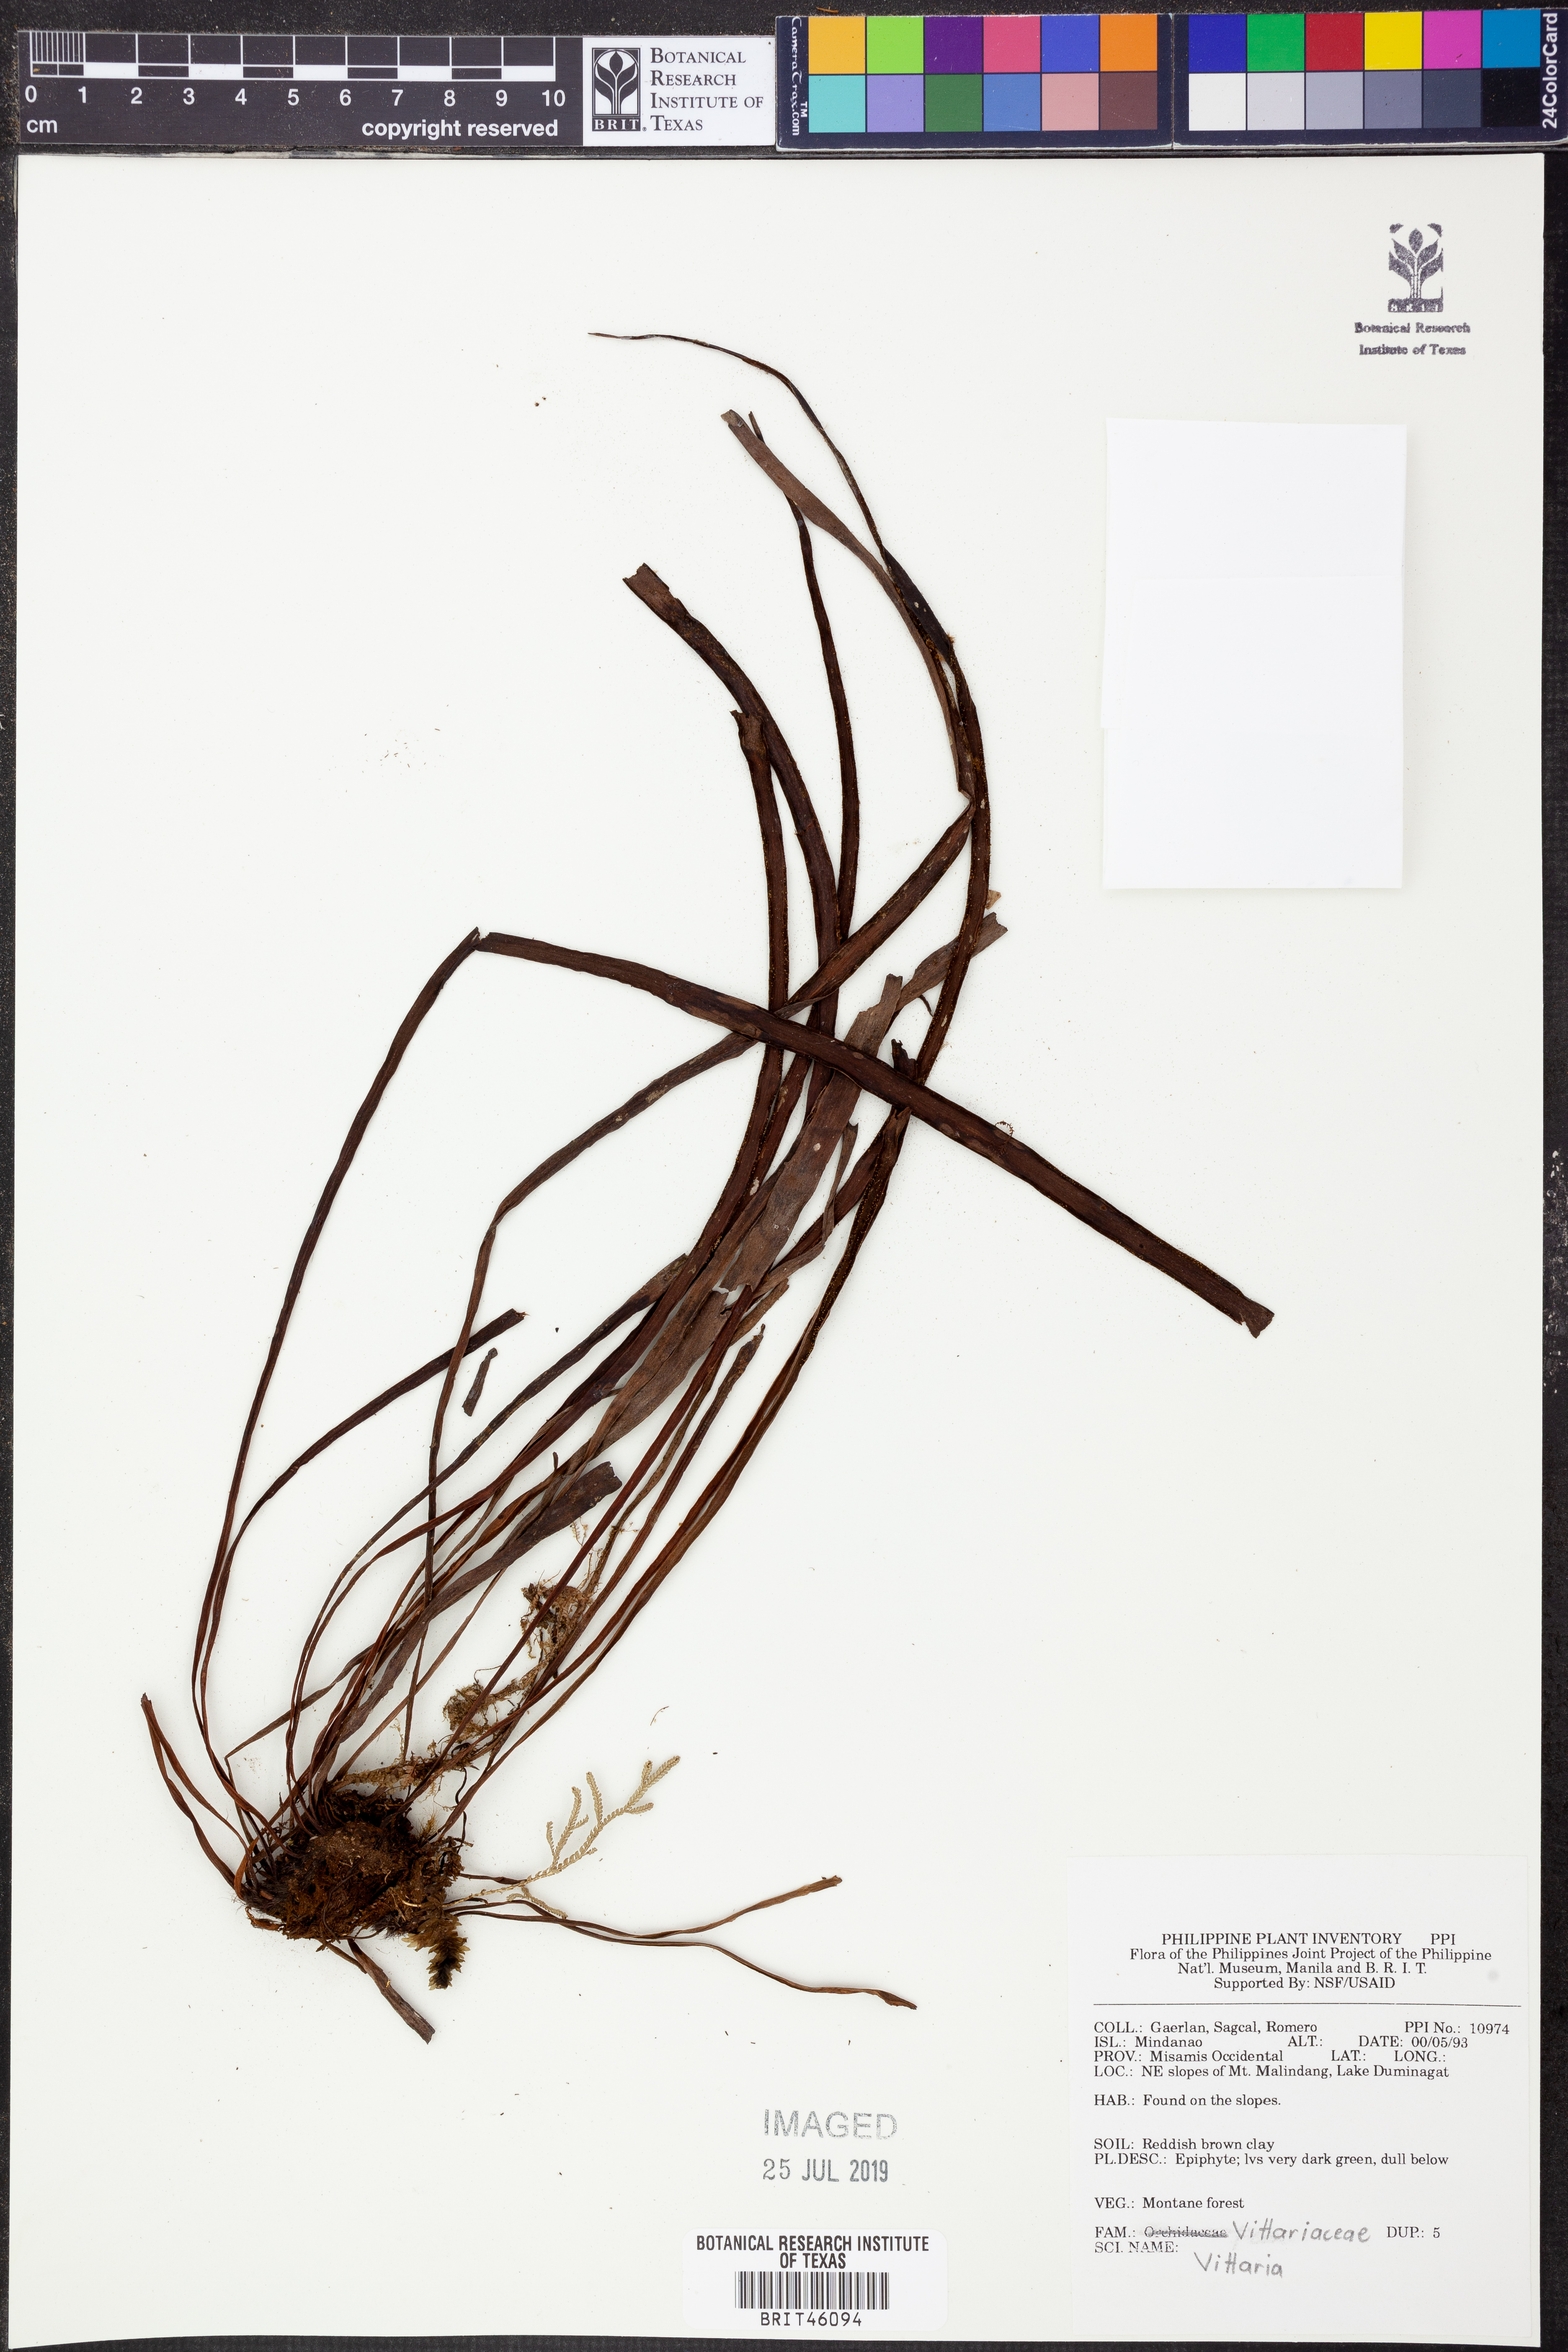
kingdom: Plantae
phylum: Tracheophyta
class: Polypodiopsida
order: Polypodiales
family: Pteridaceae
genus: Vittaria
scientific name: Vittaria
